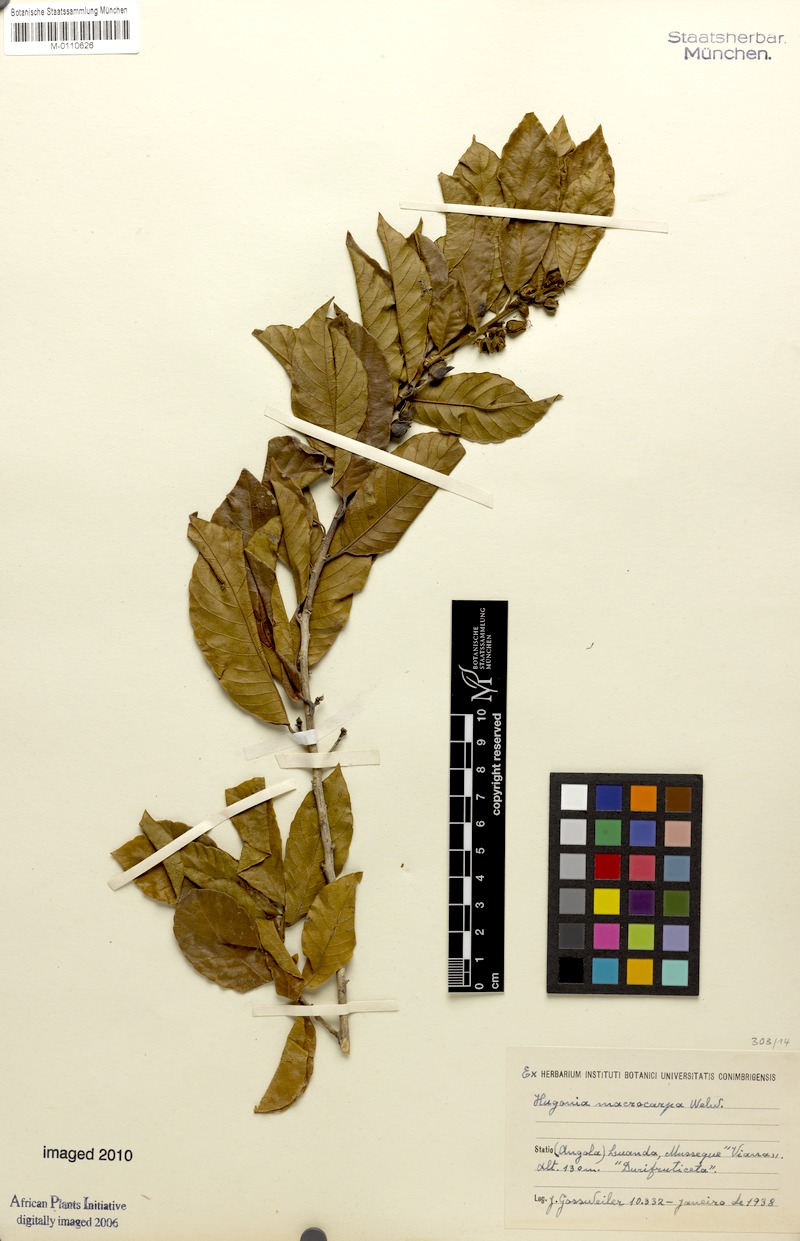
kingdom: Plantae
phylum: Tracheophyta
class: Magnoliopsida
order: Malpighiales
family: Linaceae
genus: Hugonia
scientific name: Hugonia macrocarpa
